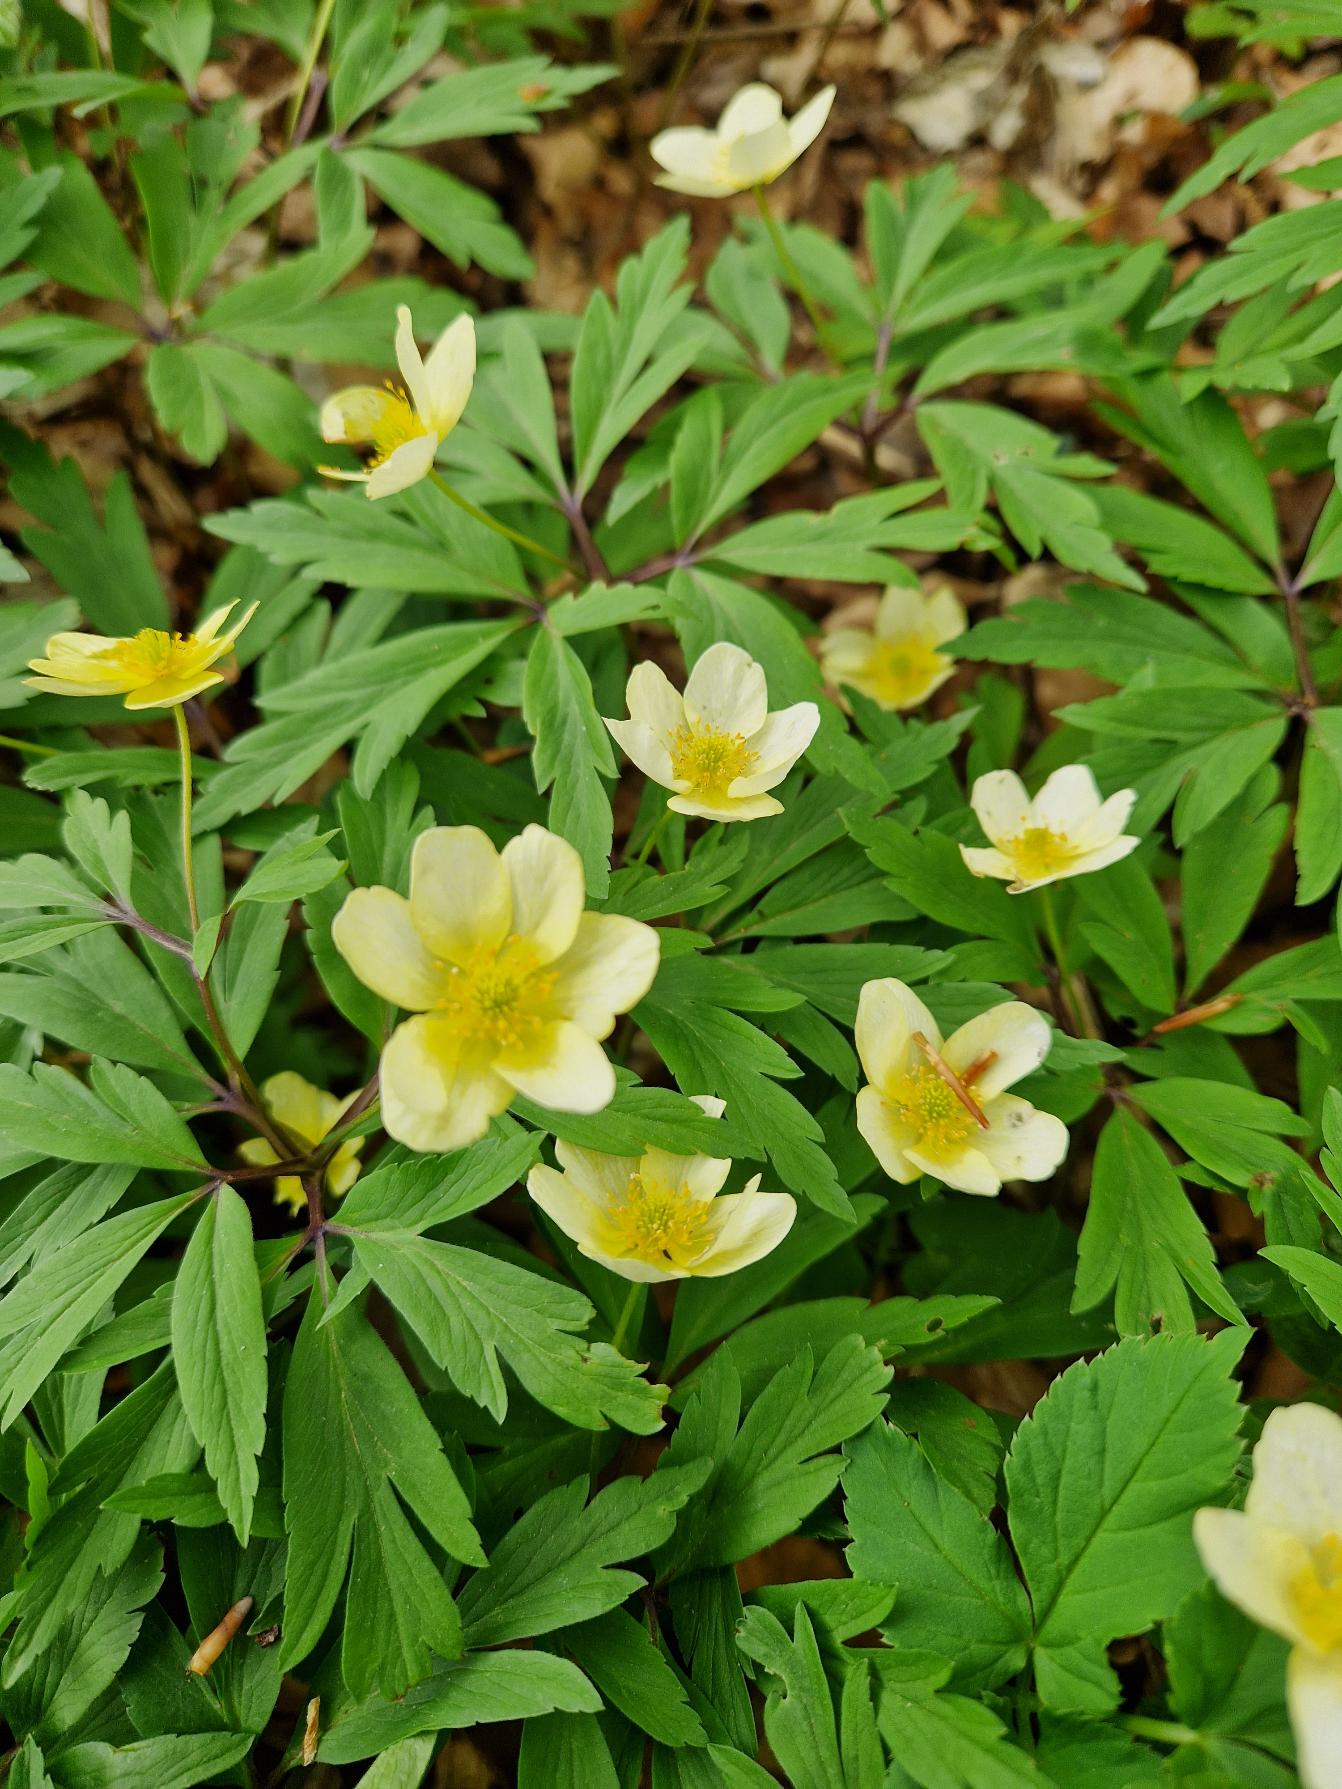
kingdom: Plantae
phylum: Tracheophyta
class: Magnoliopsida
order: Ranunculales
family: Ranunculaceae
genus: Anemone
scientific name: Anemone
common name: Svovlgul anemone
